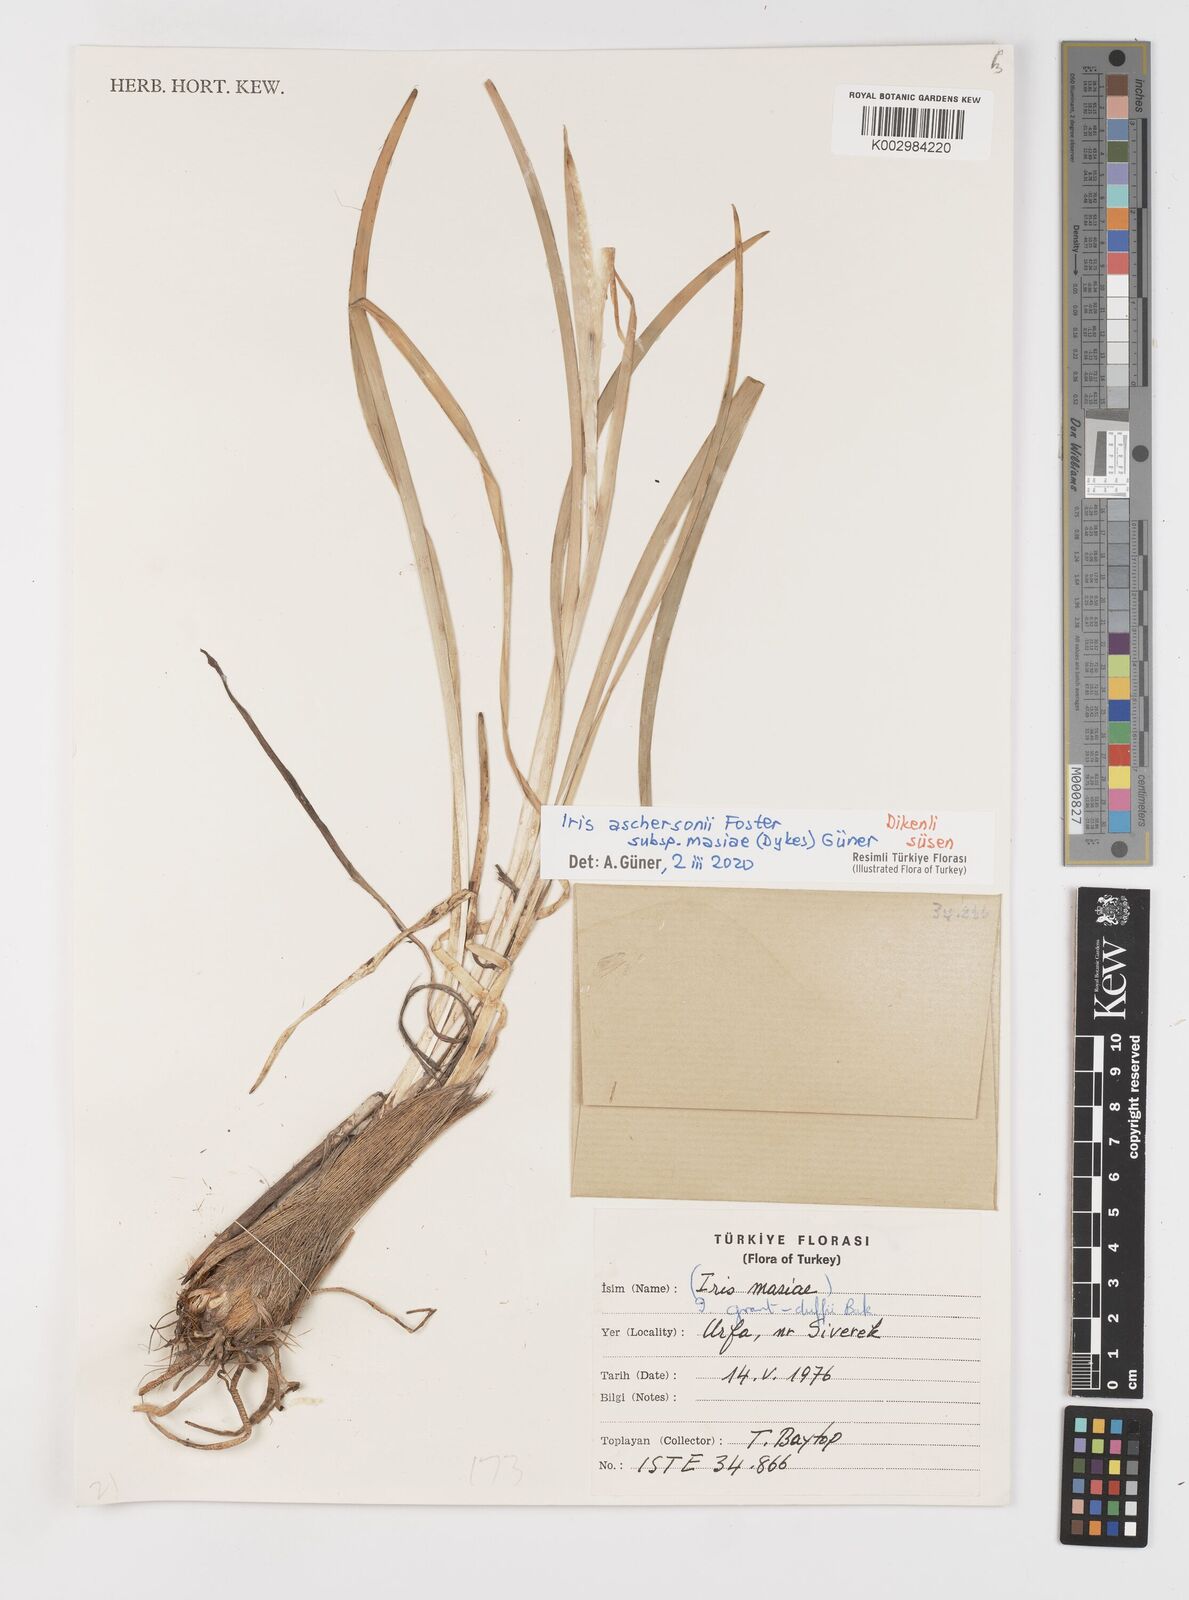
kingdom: Plantae
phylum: Tracheophyta
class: Liliopsida
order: Asparagales
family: Iridaceae
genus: Iris
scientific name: Iris grant-duffii
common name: Grant duff's iris
